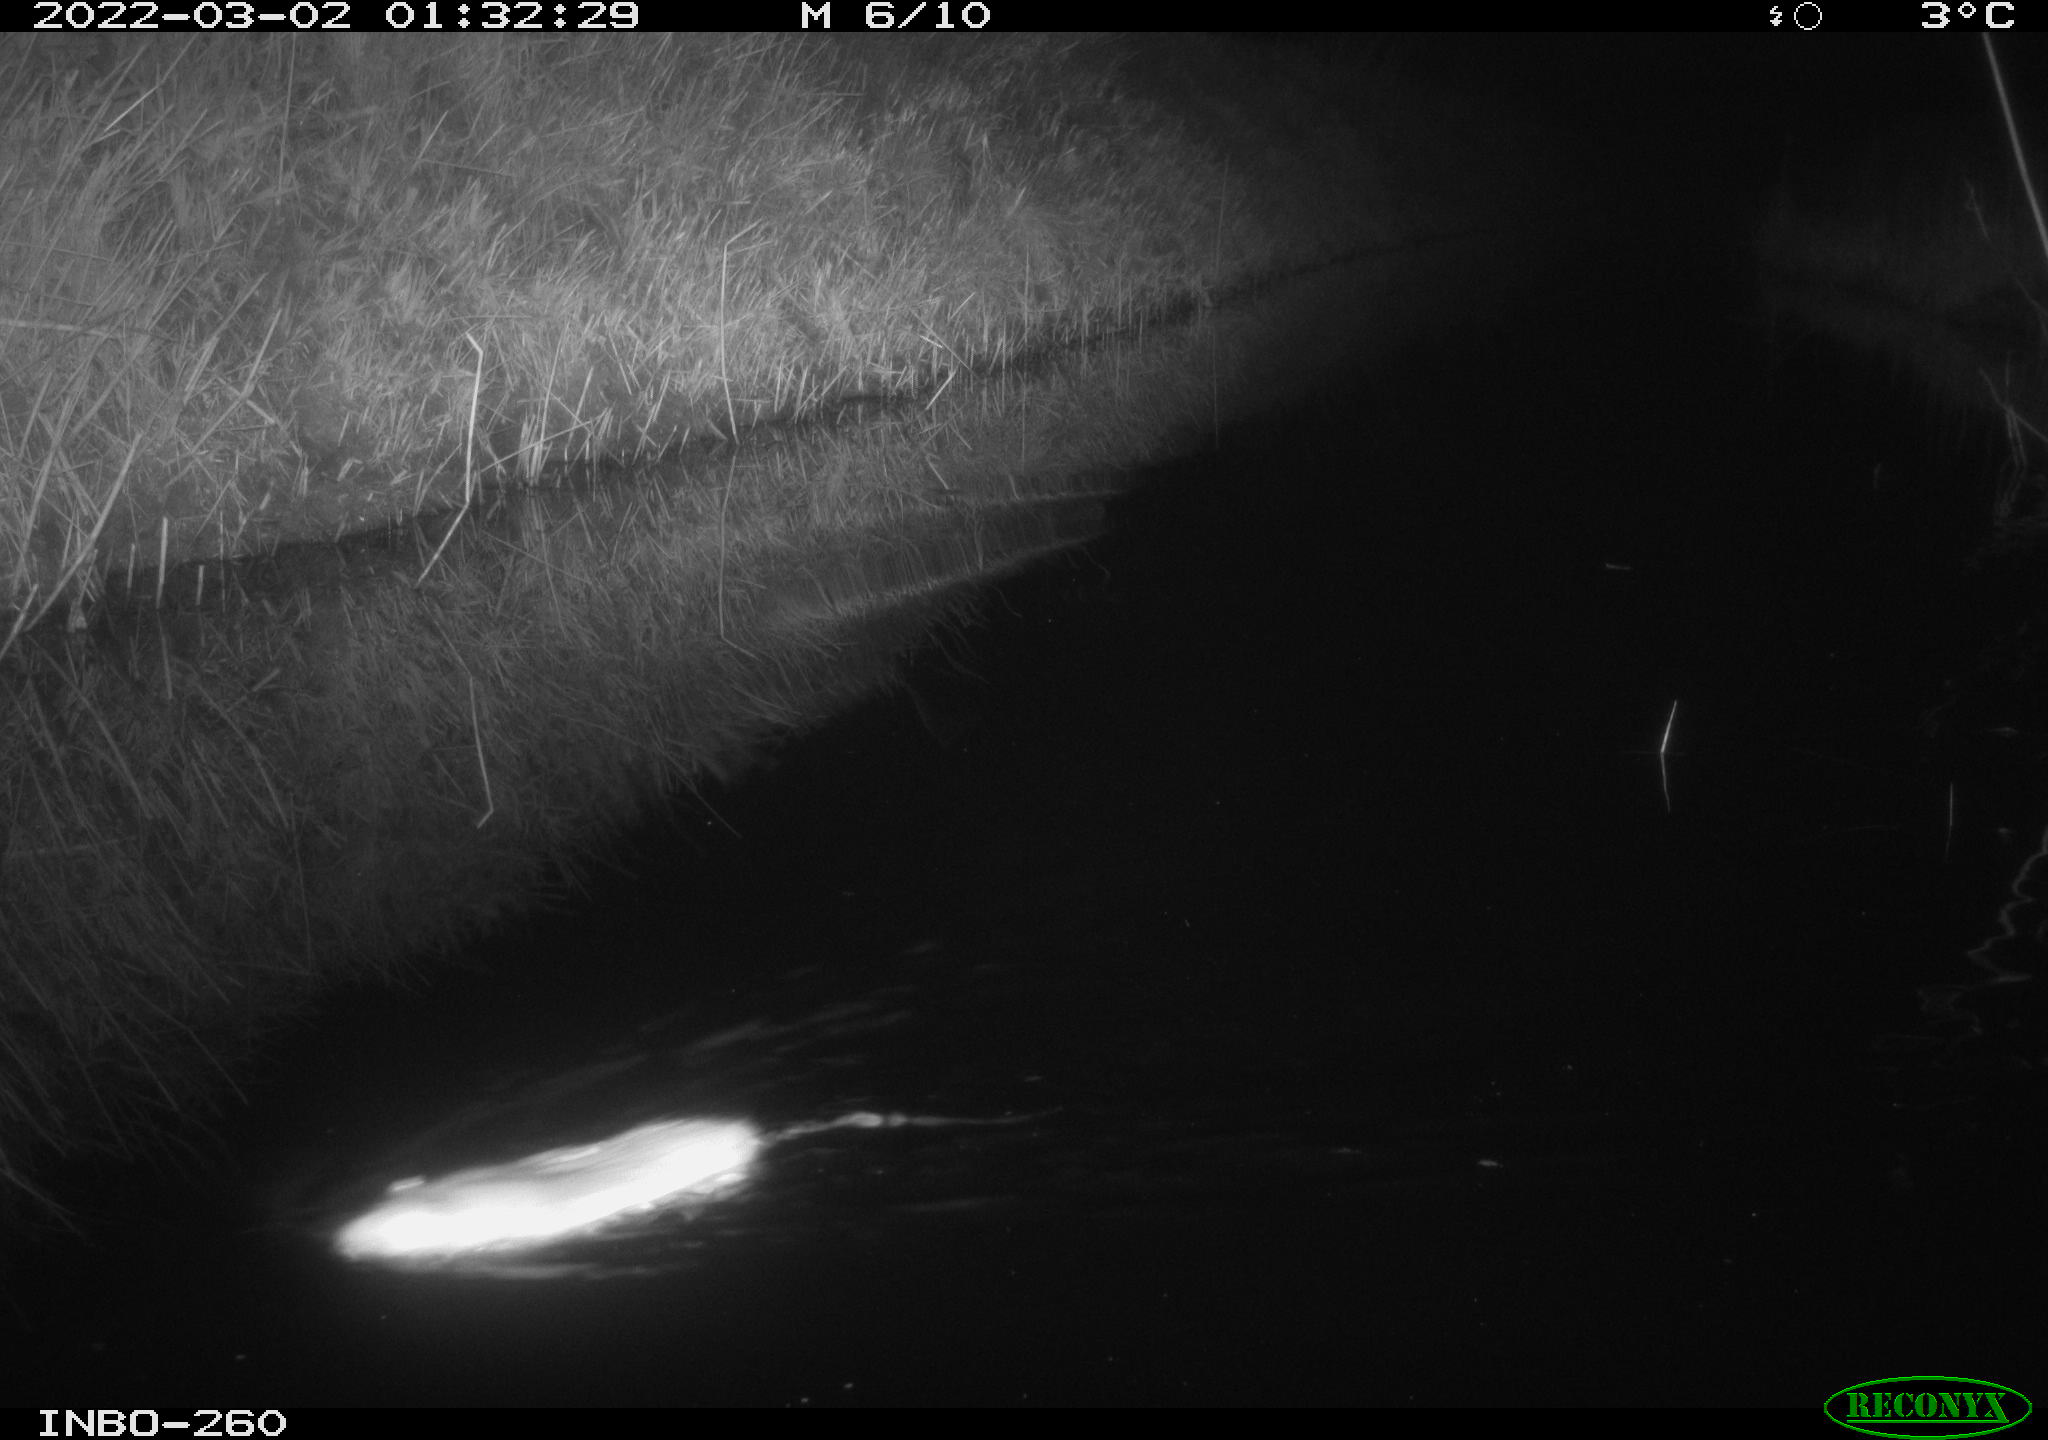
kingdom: Animalia
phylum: Chordata
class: Mammalia
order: Rodentia
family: Muridae
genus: Rattus
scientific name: Rattus norvegicus
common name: Brown rat
